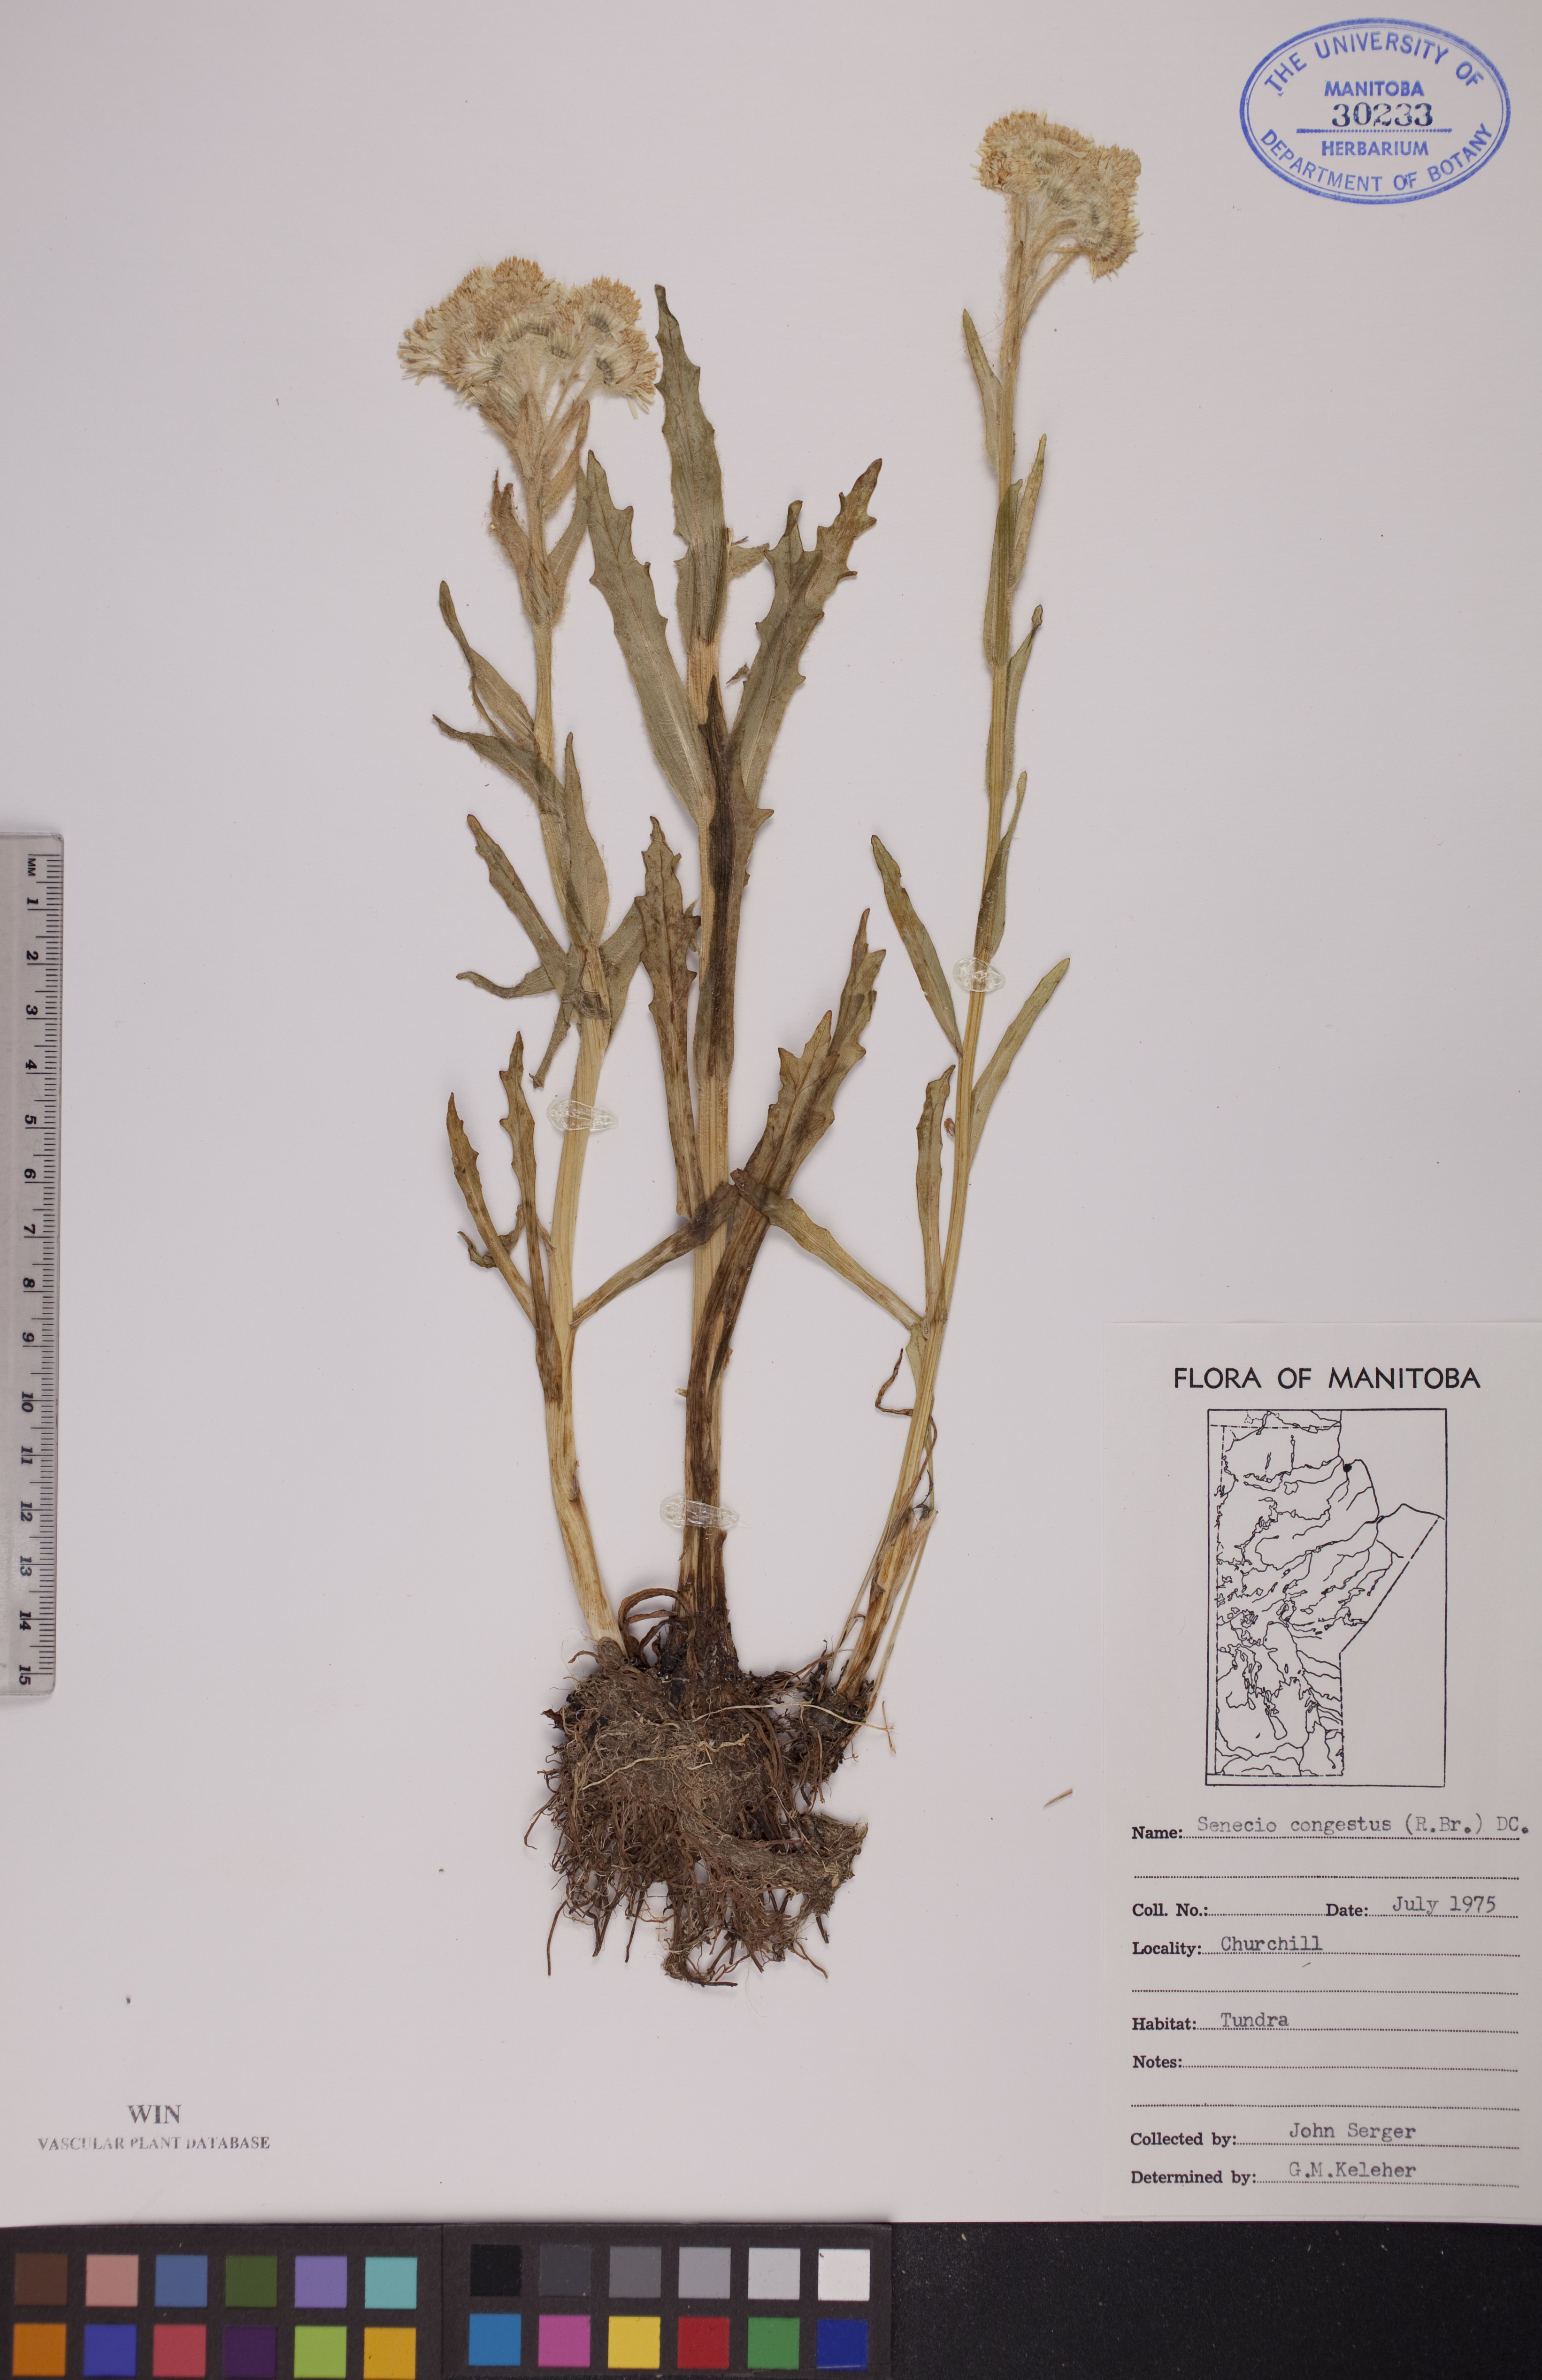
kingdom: Plantae
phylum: Tracheophyta
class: Magnoliopsida
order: Asterales
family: Asteraceae
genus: Tephroseris
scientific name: Tephroseris palustris
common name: Marsh fleawort
